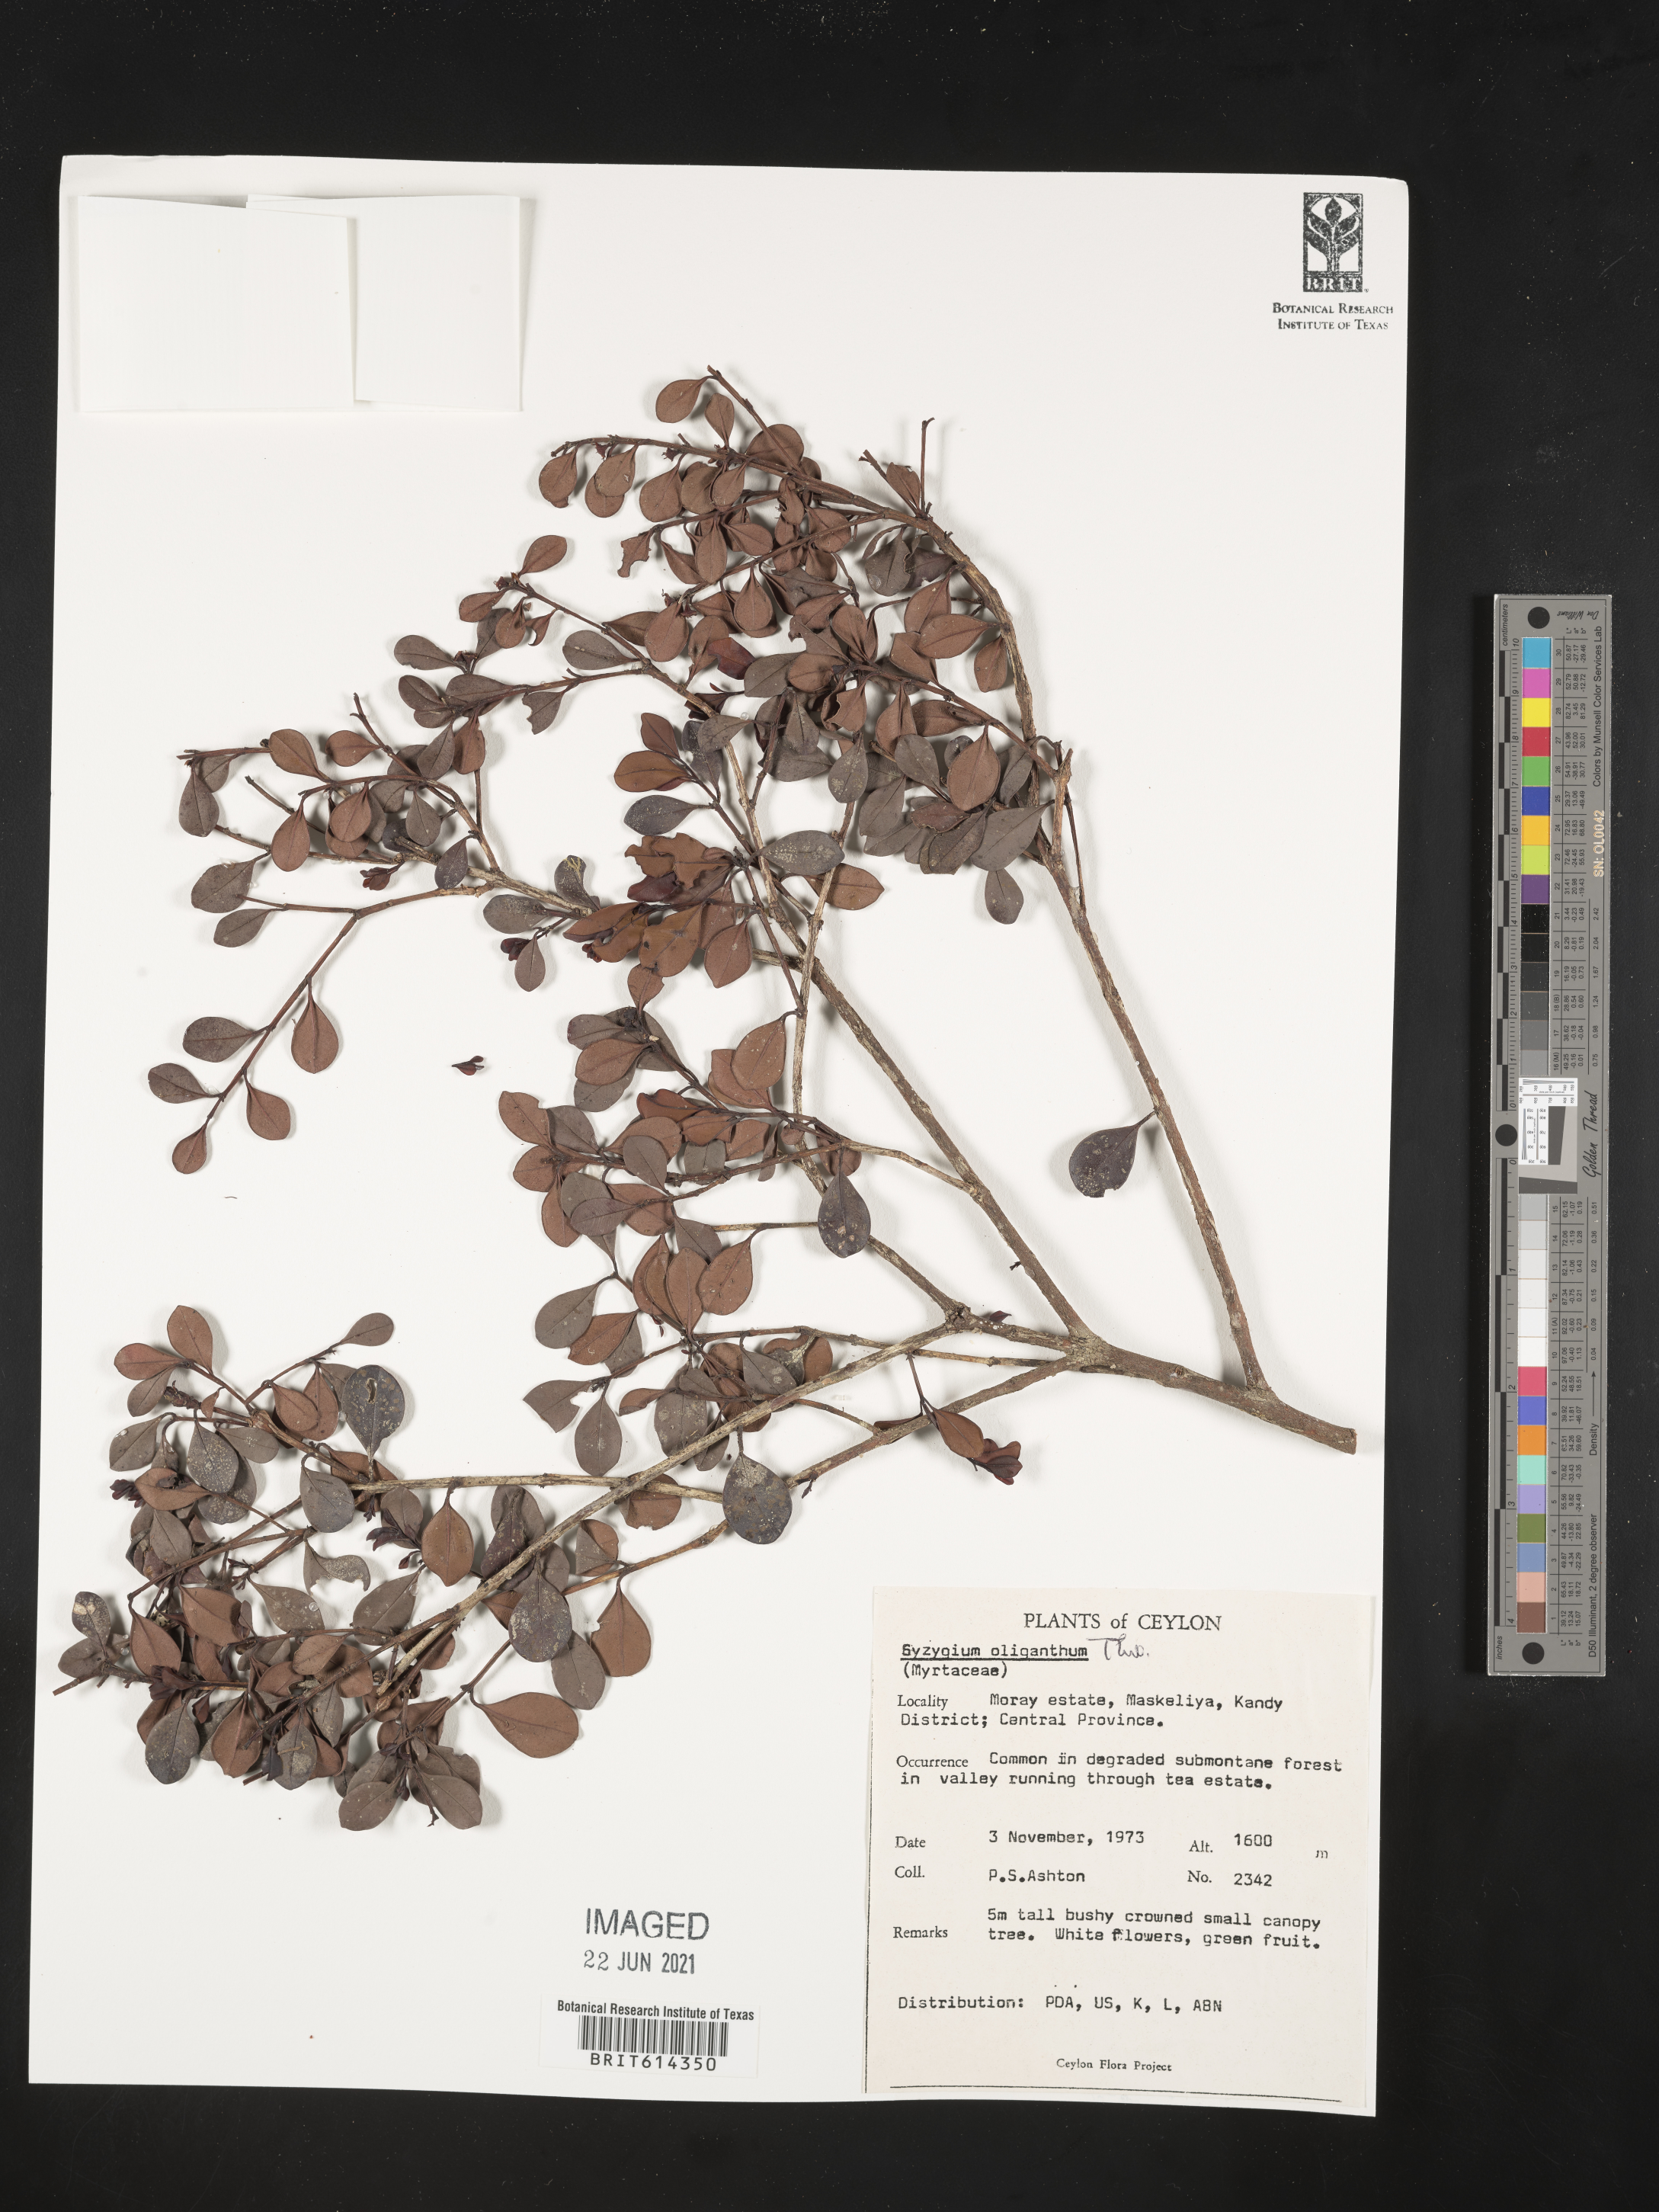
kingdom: Plantae
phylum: Tracheophyta
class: Magnoliopsida
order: Myrtales
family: Myrtaceae
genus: Syzygium
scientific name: Syzygium oliganthum
